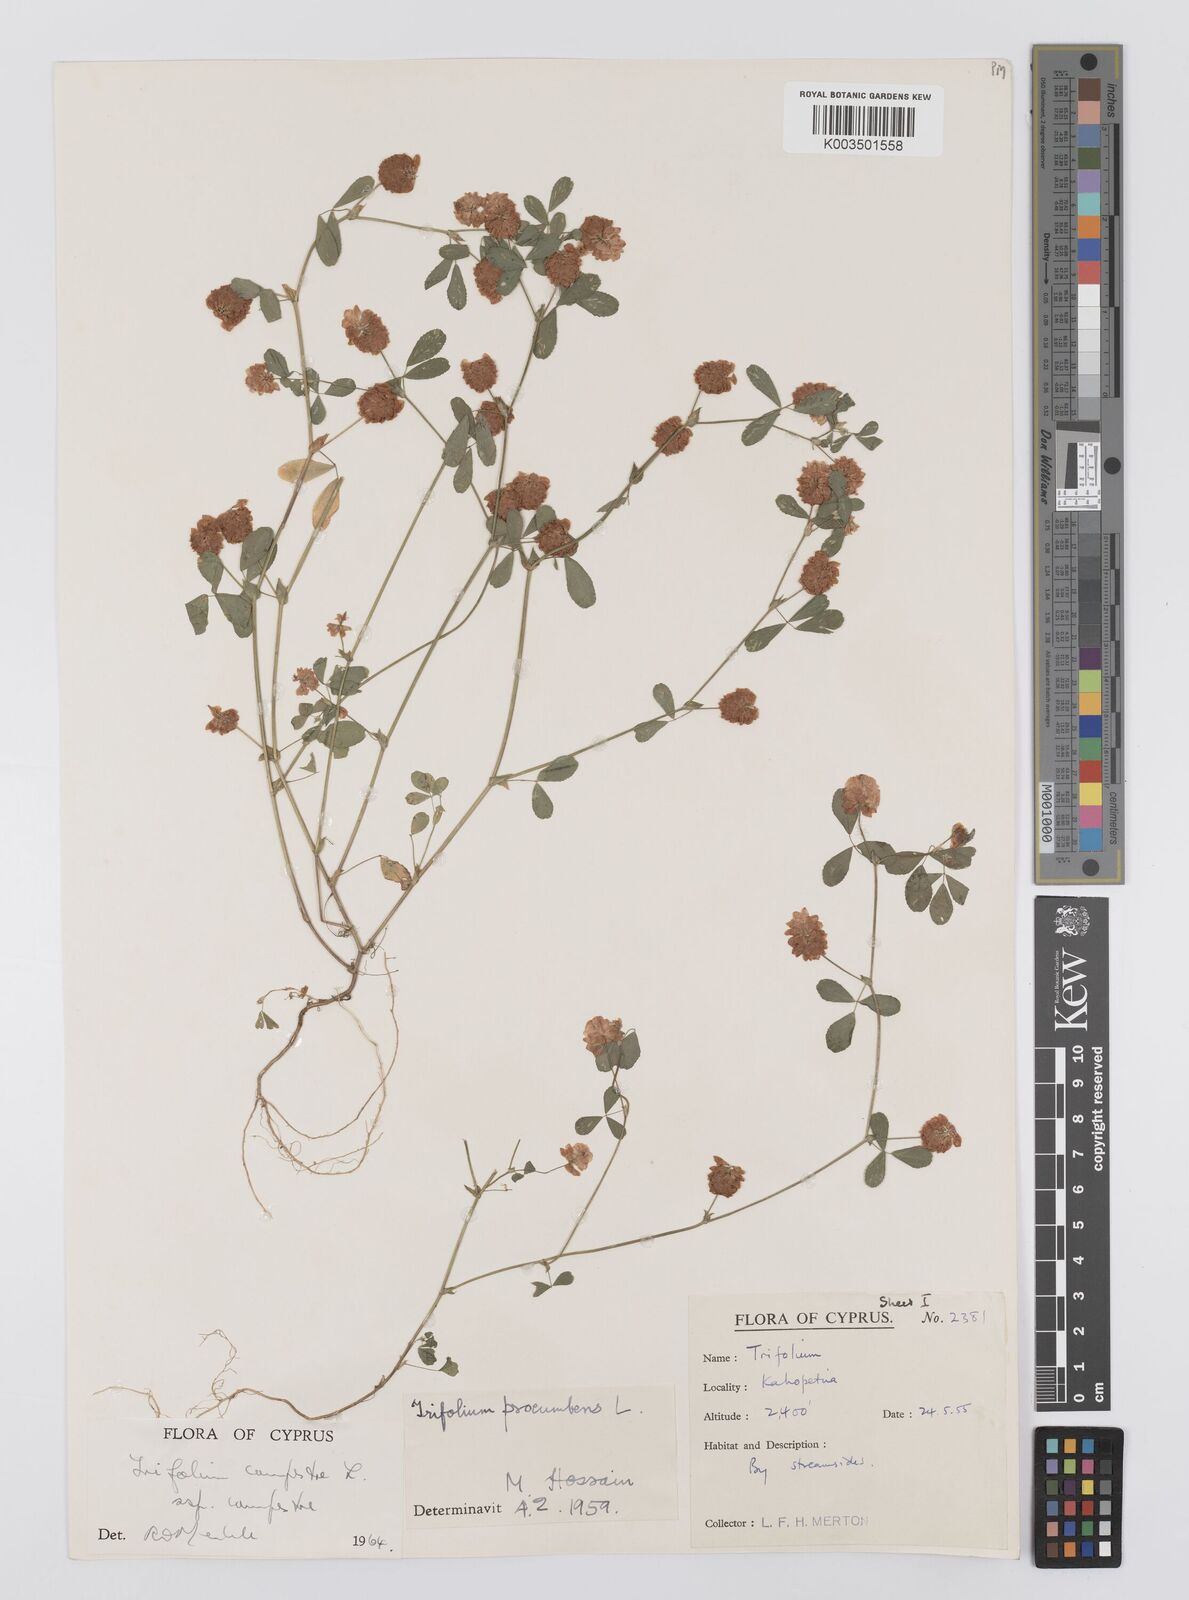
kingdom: Plantae
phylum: Tracheophyta
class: Magnoliopsida
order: Fabales
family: Fabaceae
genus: Trifolium
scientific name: Trifolium campestre
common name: Field clover
